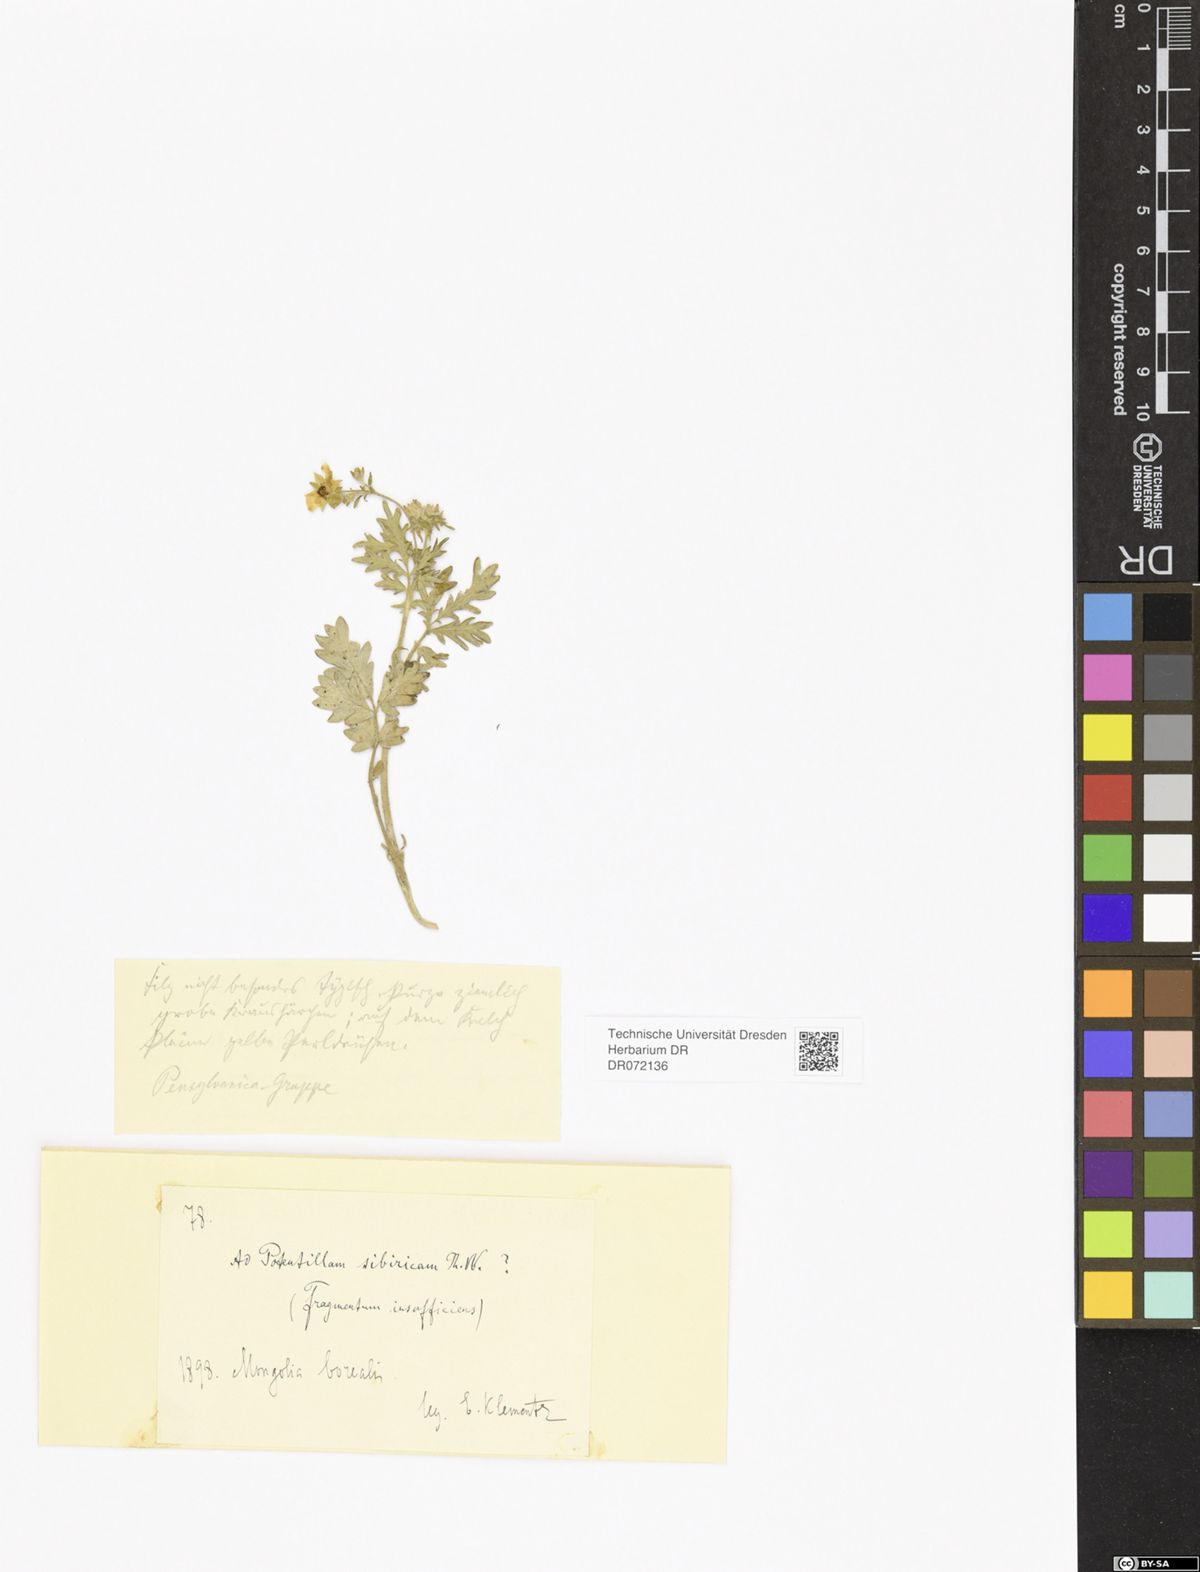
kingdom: Plantae
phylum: Tracheophyta
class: Magnoliopsida
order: Rosales
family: Rosaceae
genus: Potentilla
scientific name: Potentilla
